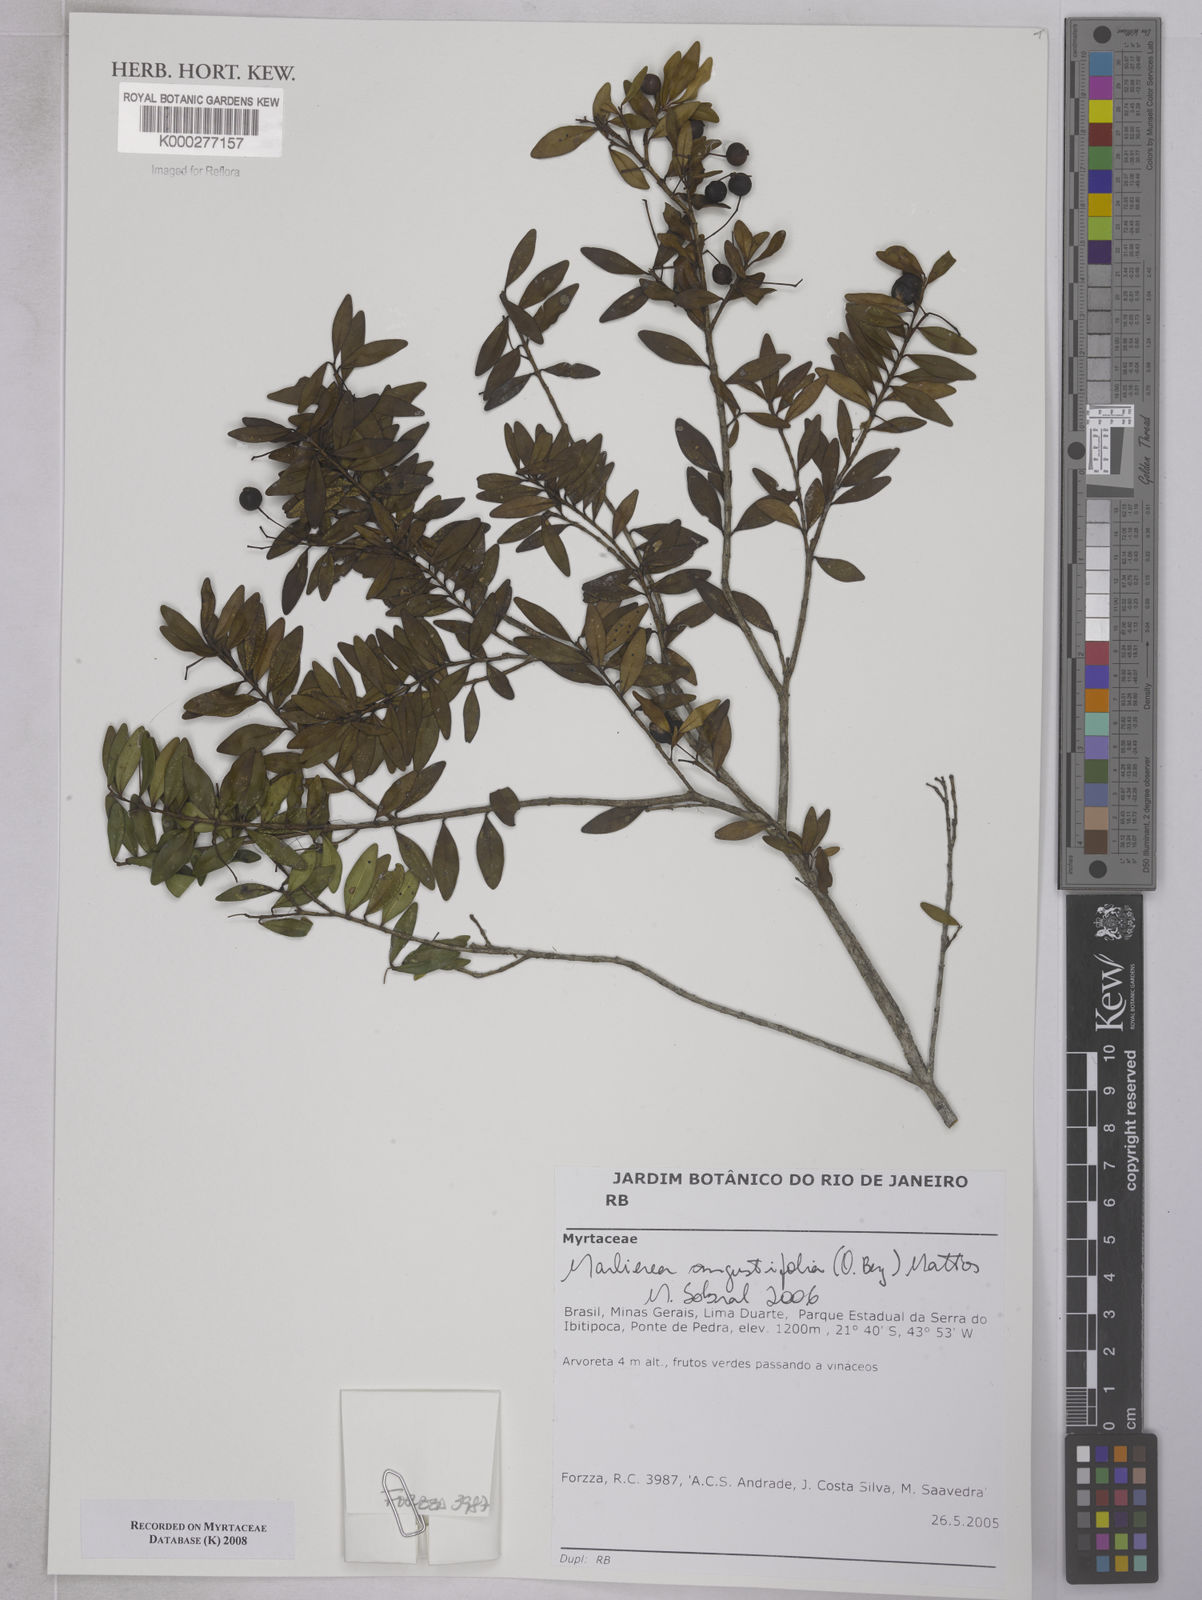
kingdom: Plantae
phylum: Tracheophyta
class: Magnoliopsida
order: Myrtales
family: Myrtaceae
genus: Myrcia
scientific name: Myrcia lenheirensis
